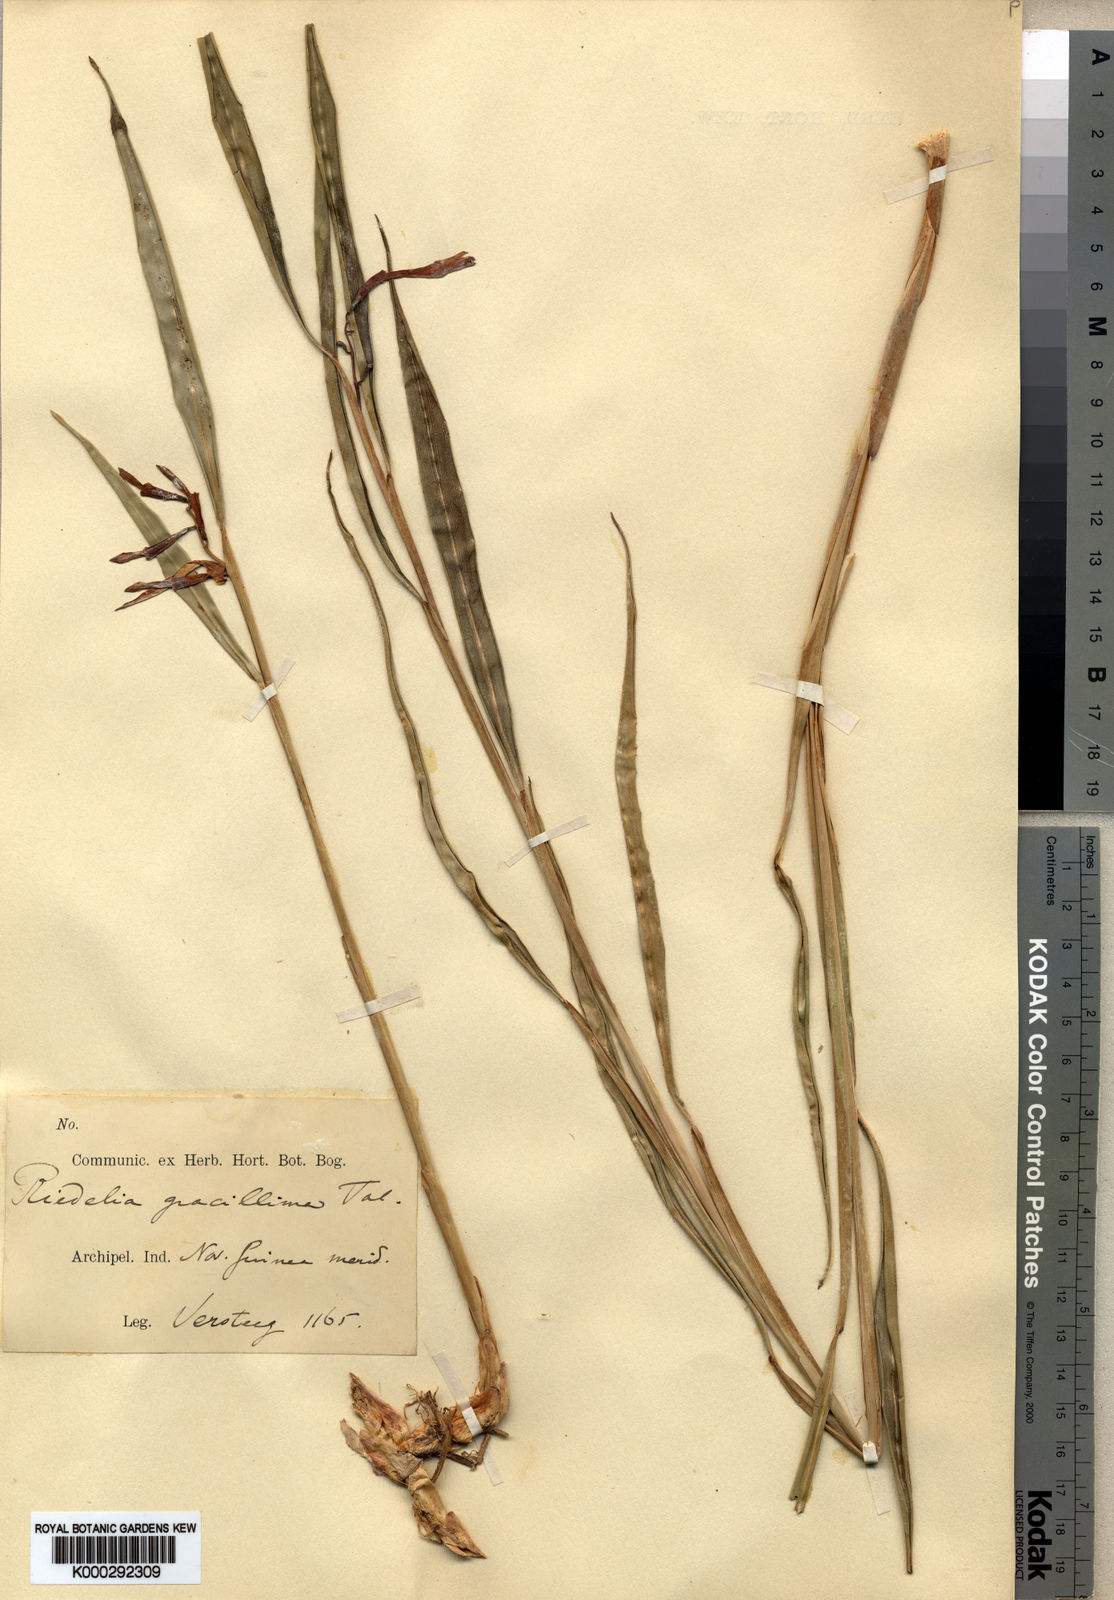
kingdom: Plantae
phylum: Tracheophyta
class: Liliopsida
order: Zingiberales
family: Zingiberaceae
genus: Riedelia
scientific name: Riedelia grandiligula
